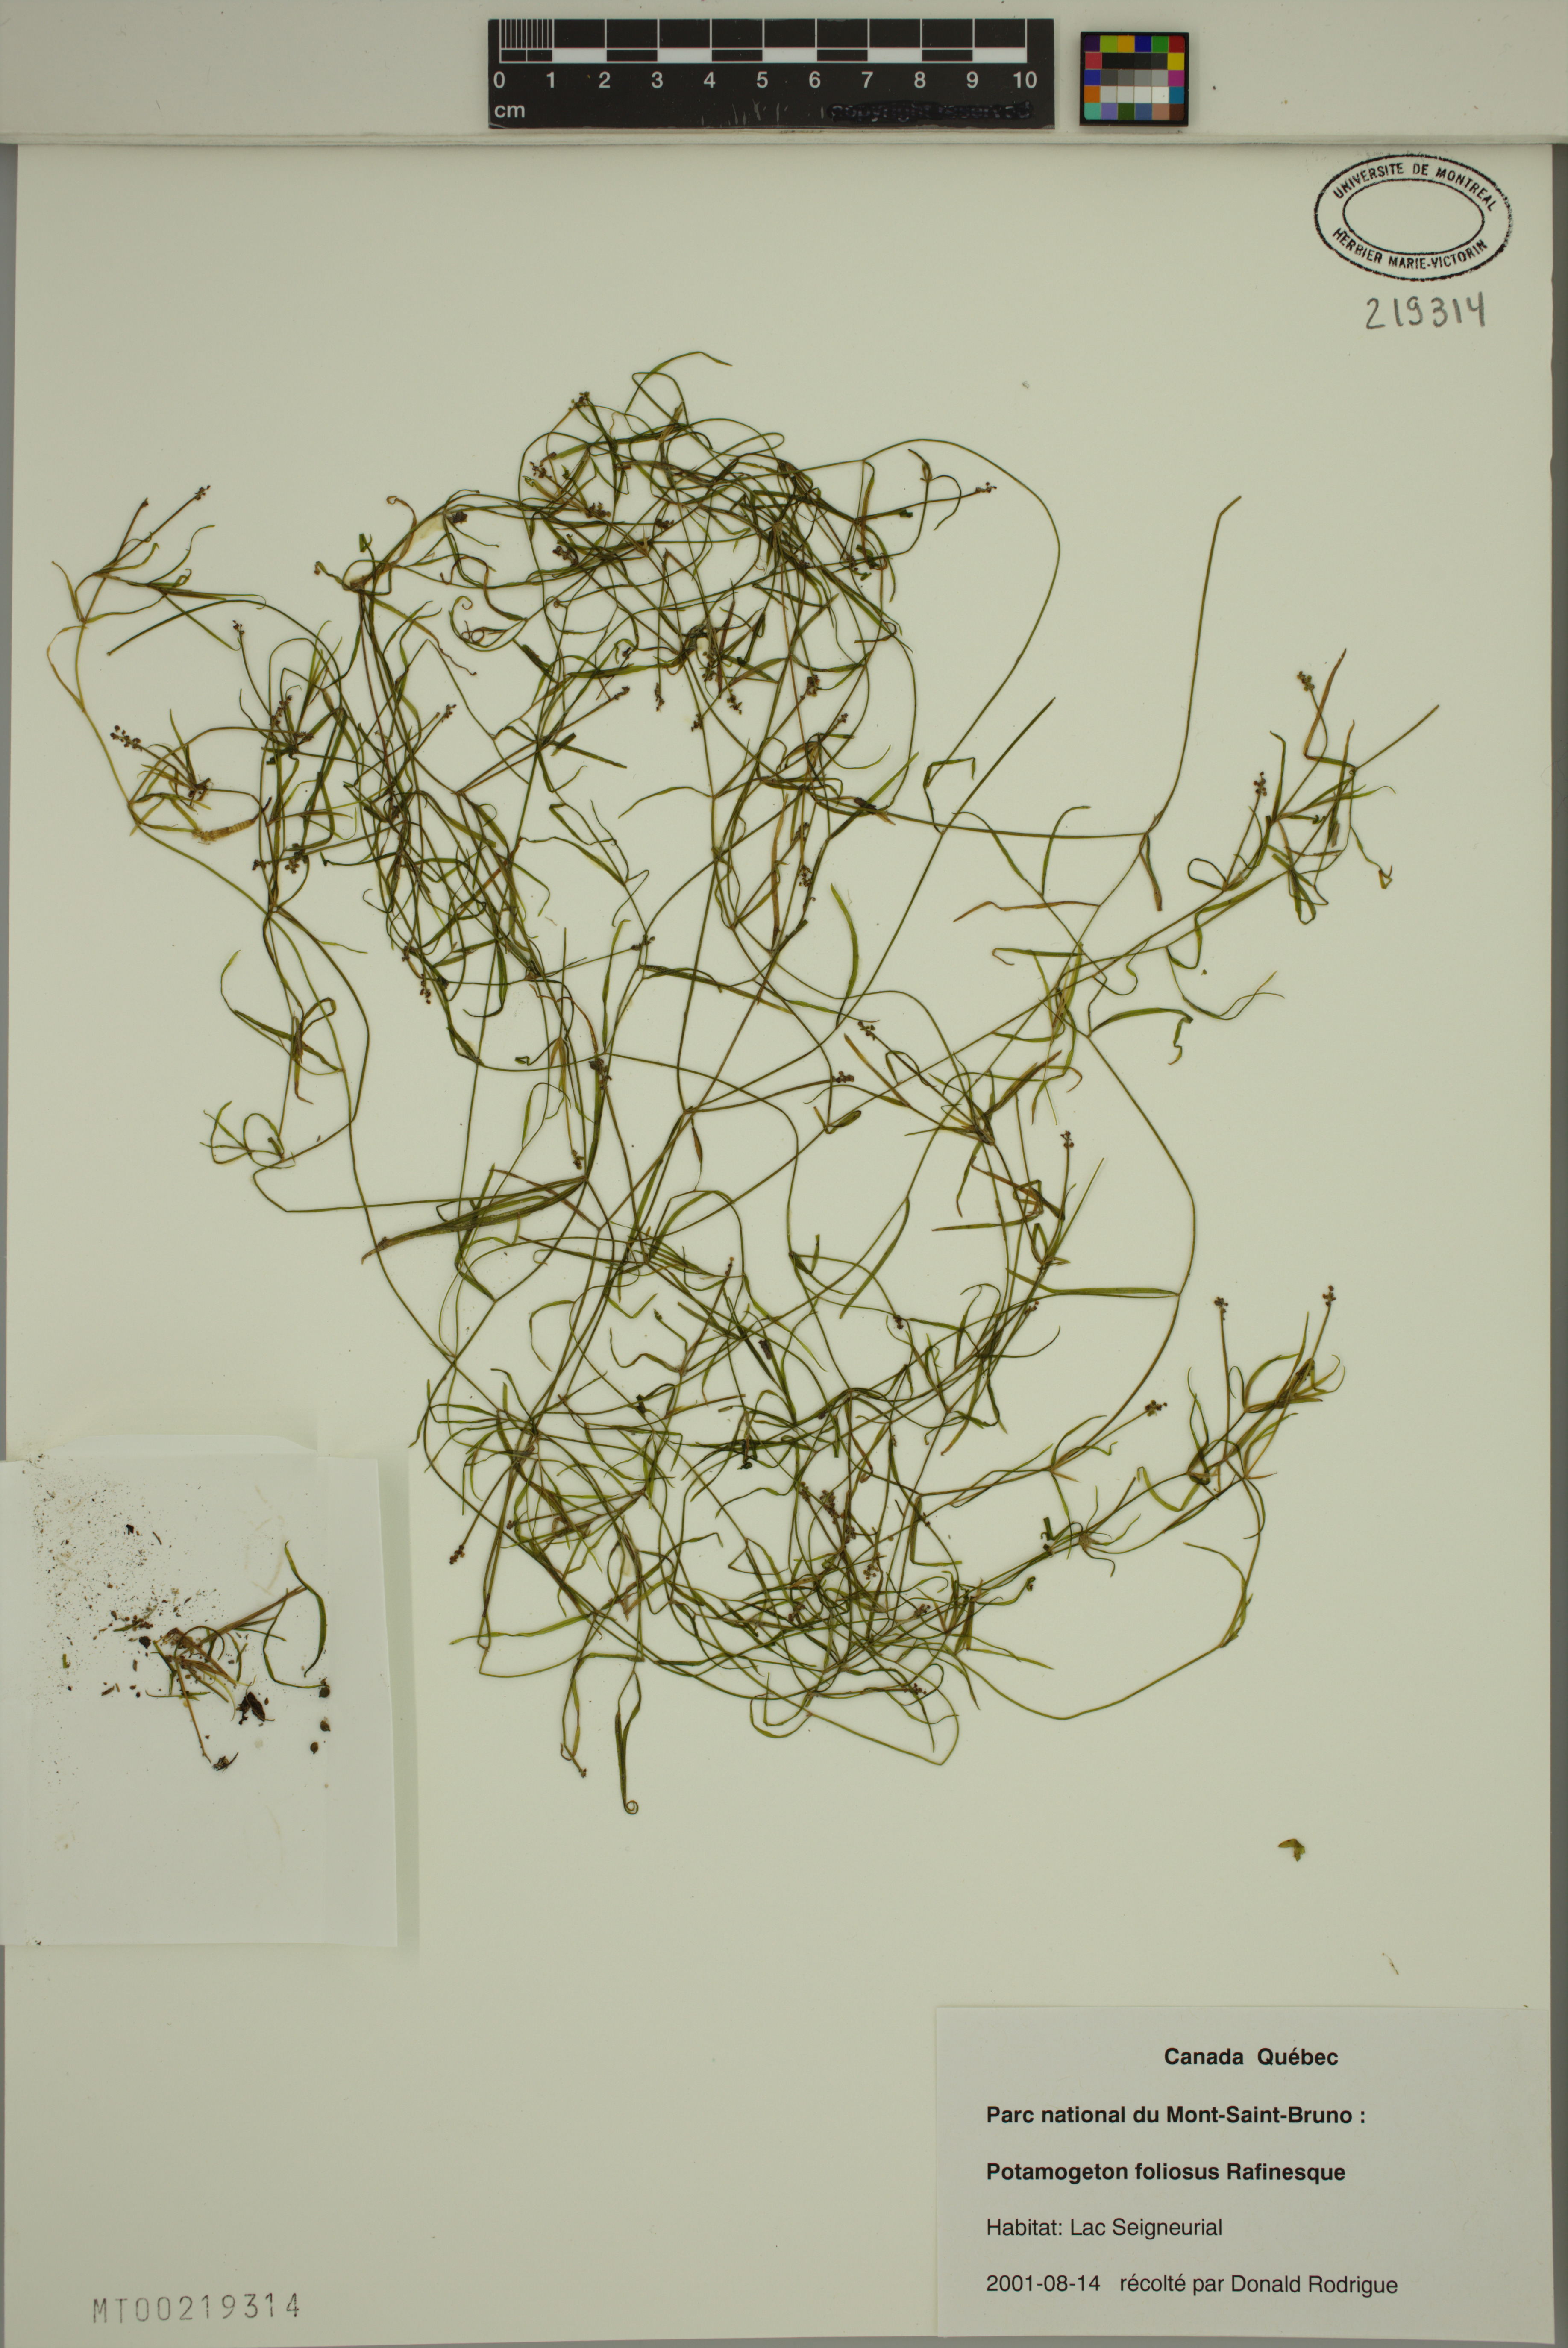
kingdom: Plantae
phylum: Tracheophyta
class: Liliopsida
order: Alismatales
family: Potamogetonaceae
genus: Potamogeton
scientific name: Potamogeton foliosus
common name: Leafy pondweed
